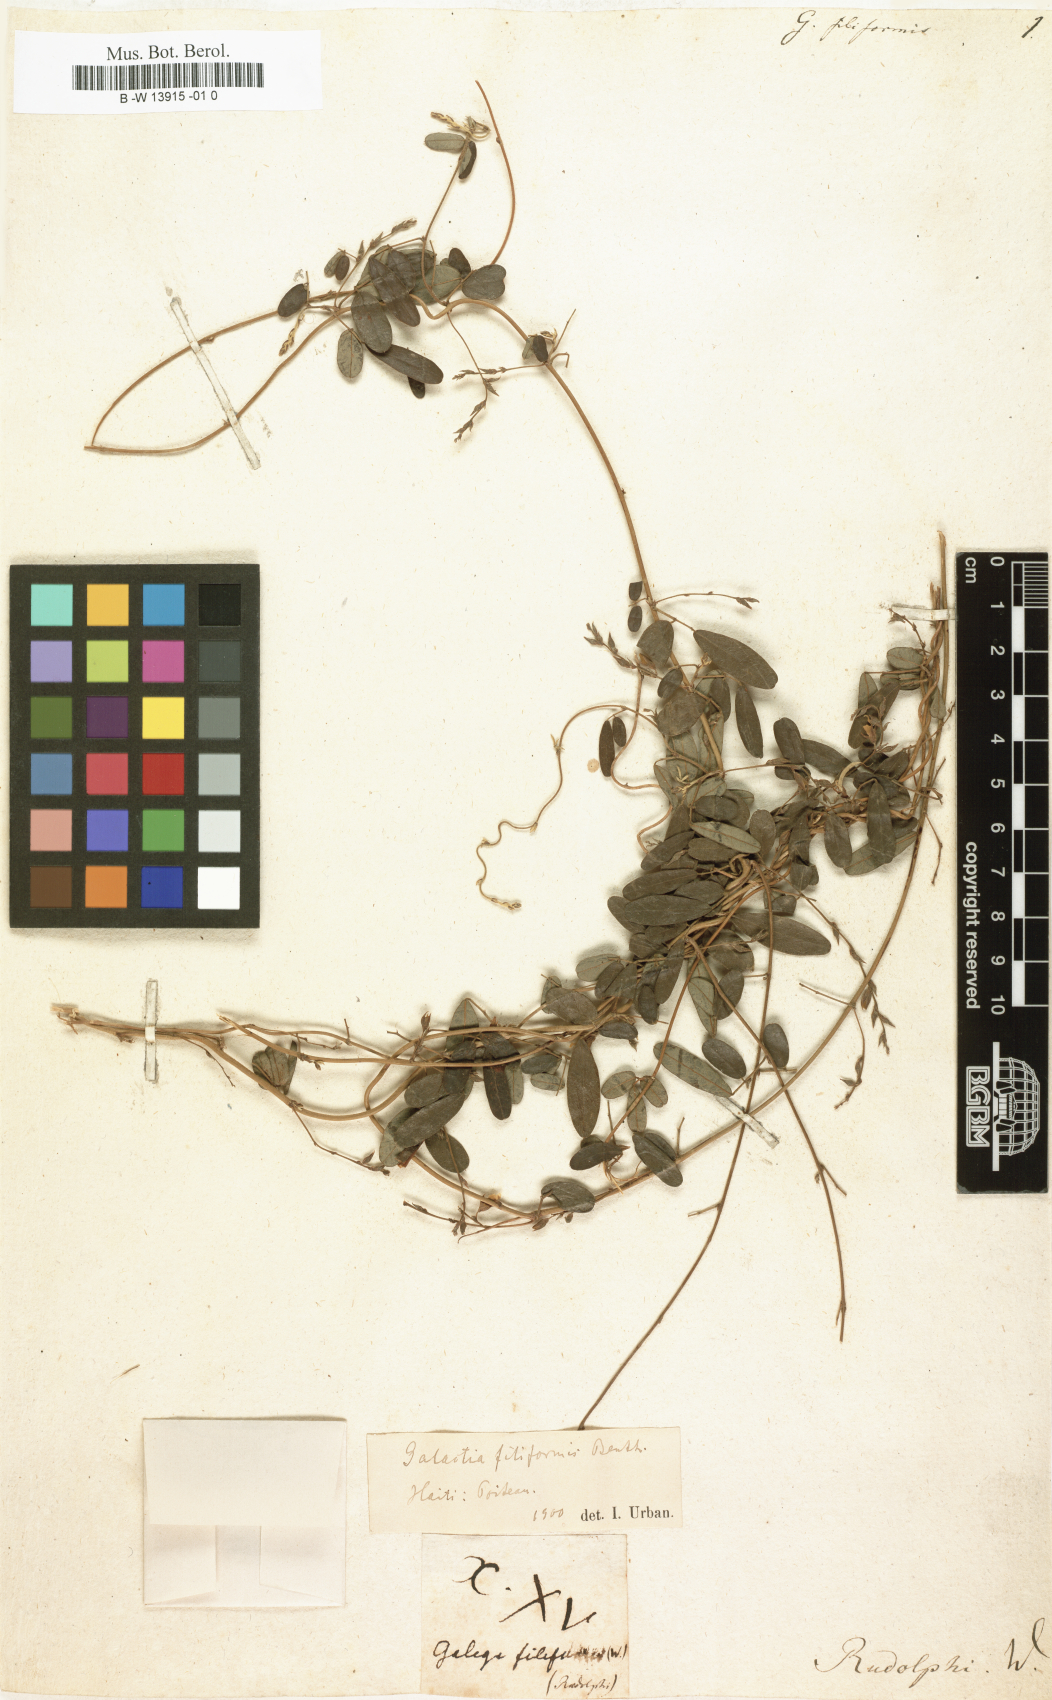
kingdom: Plantae
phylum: Tracheophyta
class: Magnoliopsida
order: Fabales
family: Fabaceae
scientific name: Fabaceae
